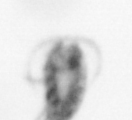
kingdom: Animalia
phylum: Arthropoda
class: Copepoda
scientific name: Copepoda
